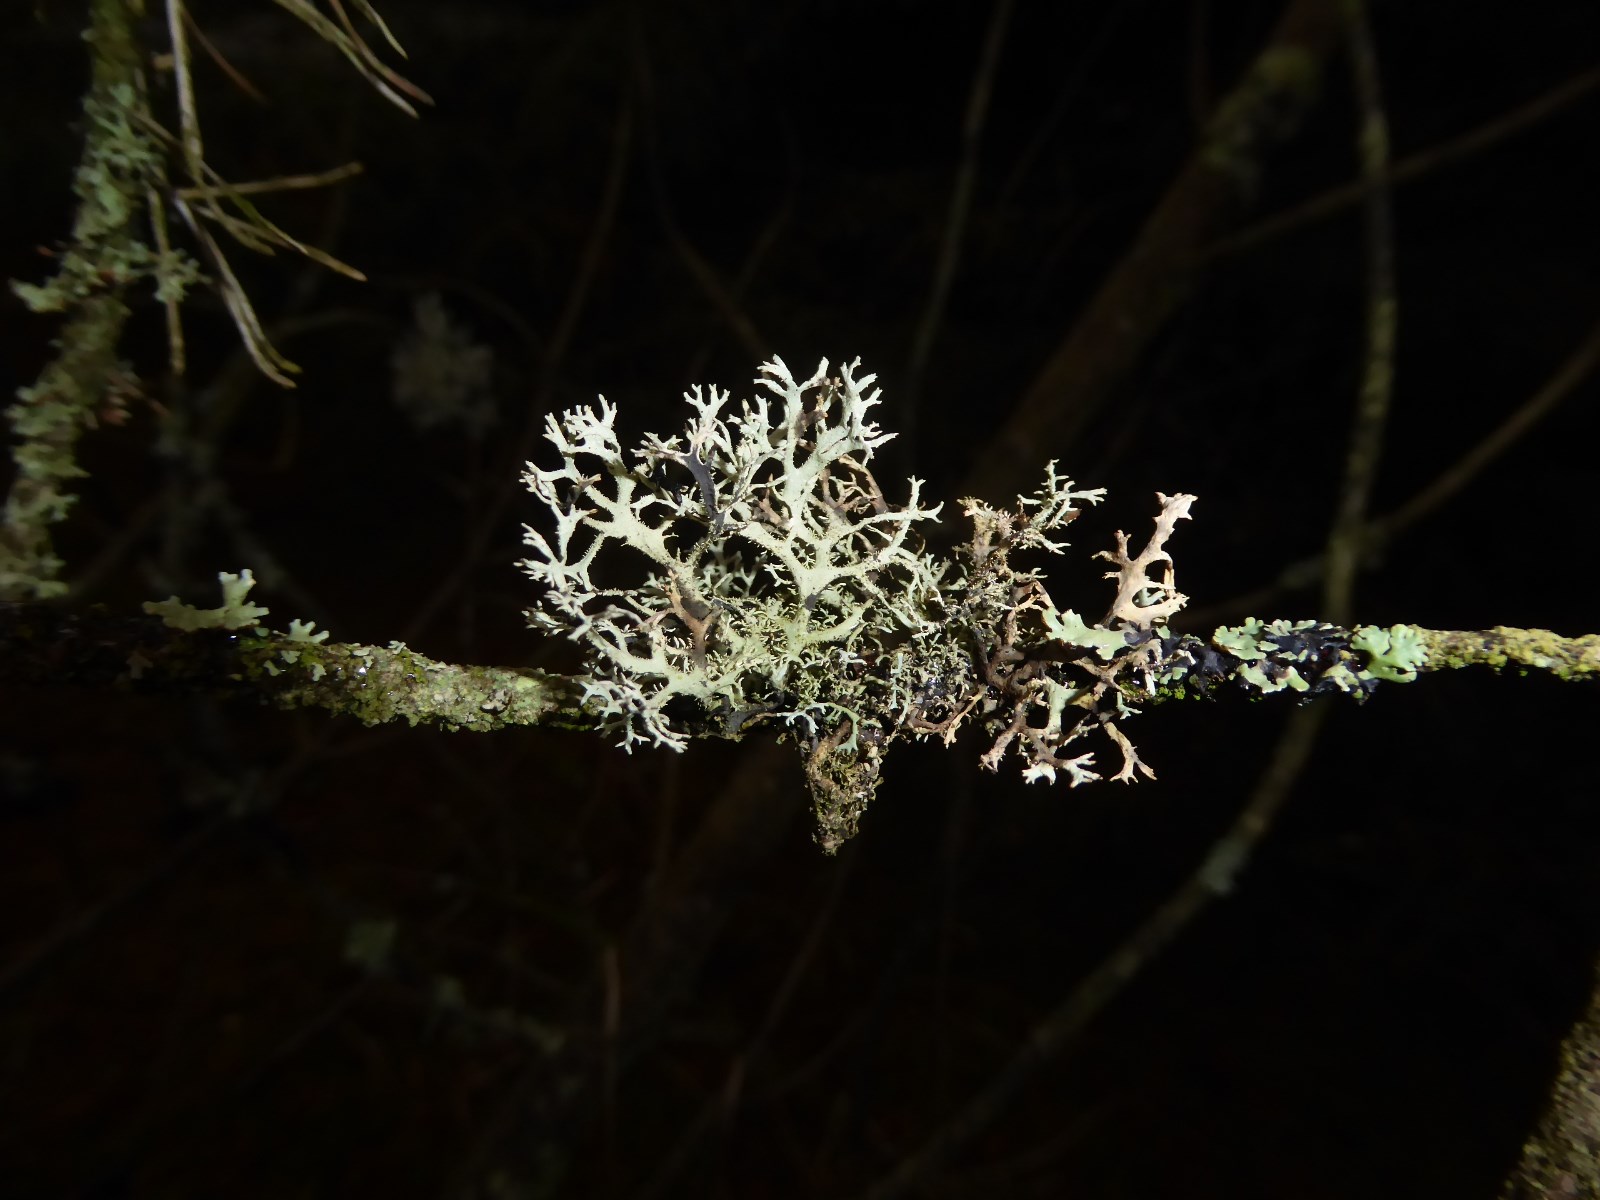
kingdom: Fungi
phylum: Ascomycota
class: Lecanoromycetes
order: Lecanorales
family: Parmeliaceae
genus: Pseudevernia
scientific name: Pseudevernia furfuracea
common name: grå fyrrelav
